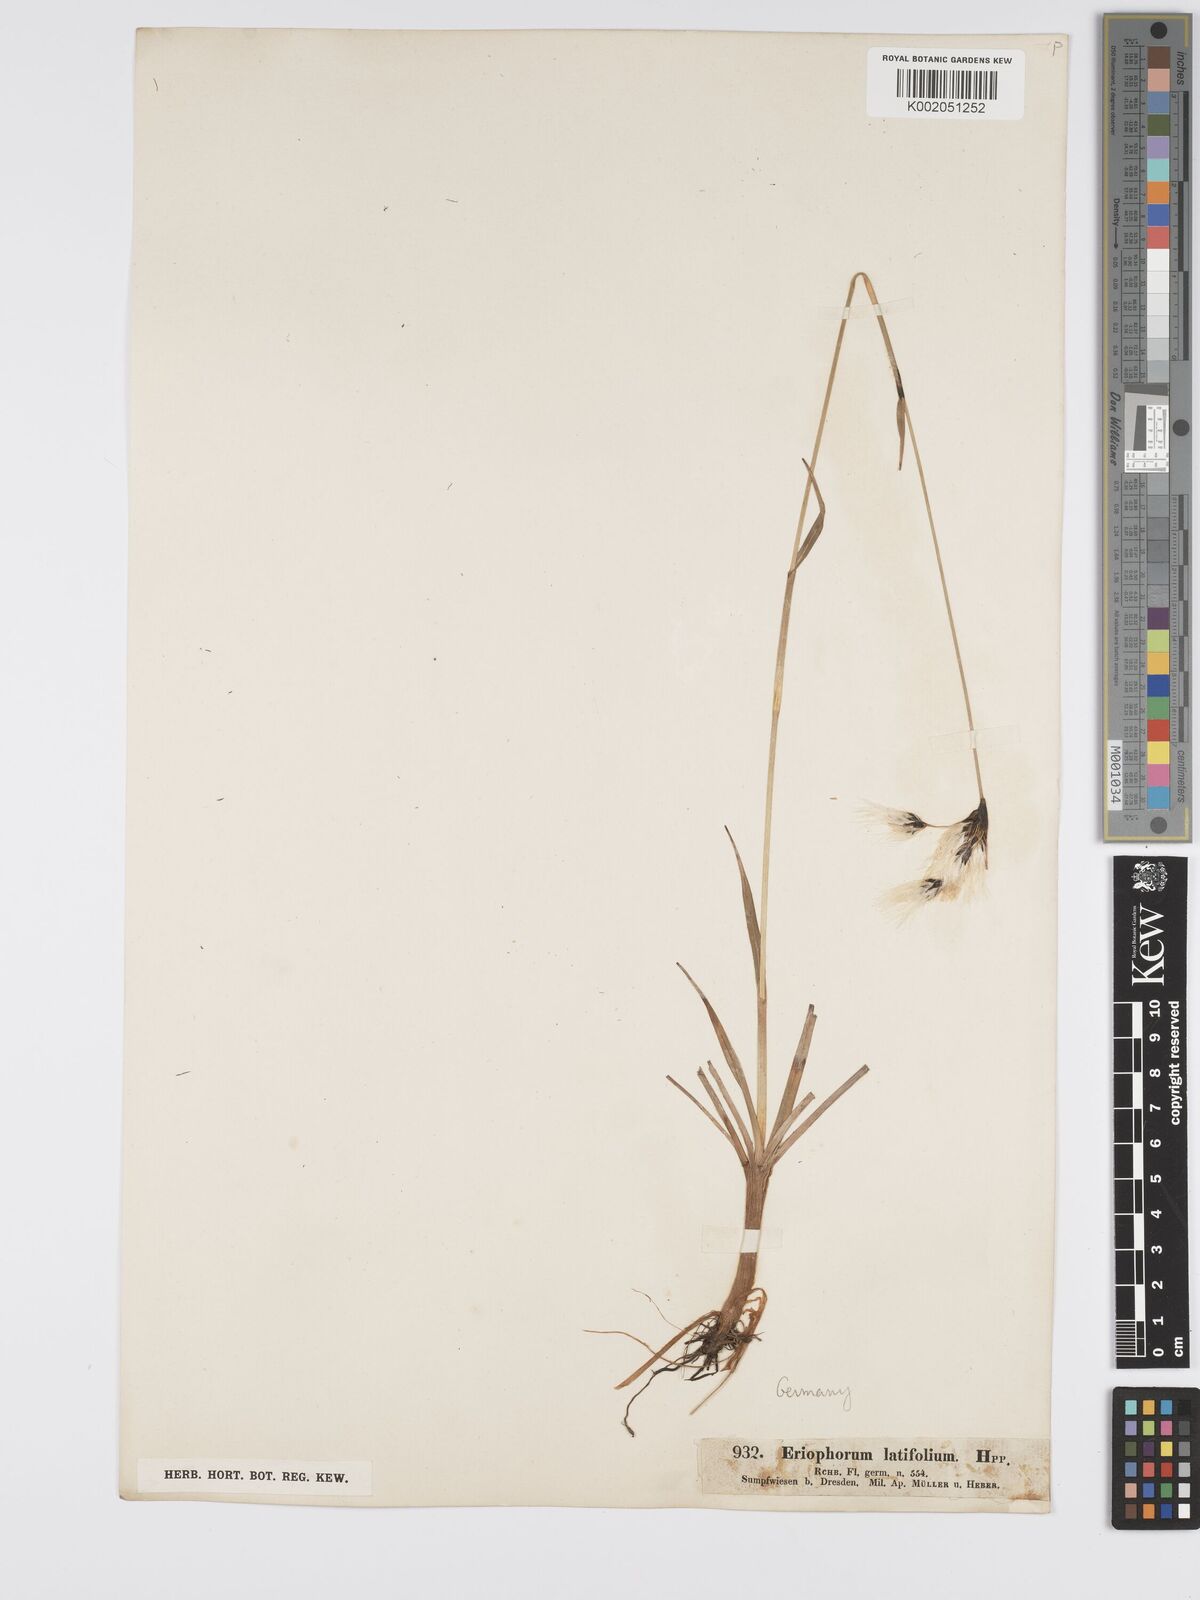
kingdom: Plantae
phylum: Tracheophyta
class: Liliopsida
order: Poales
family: Cyperaceae
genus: Eriophorum
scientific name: Eriophorum latifolium
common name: Broad-leaved cottongrass
